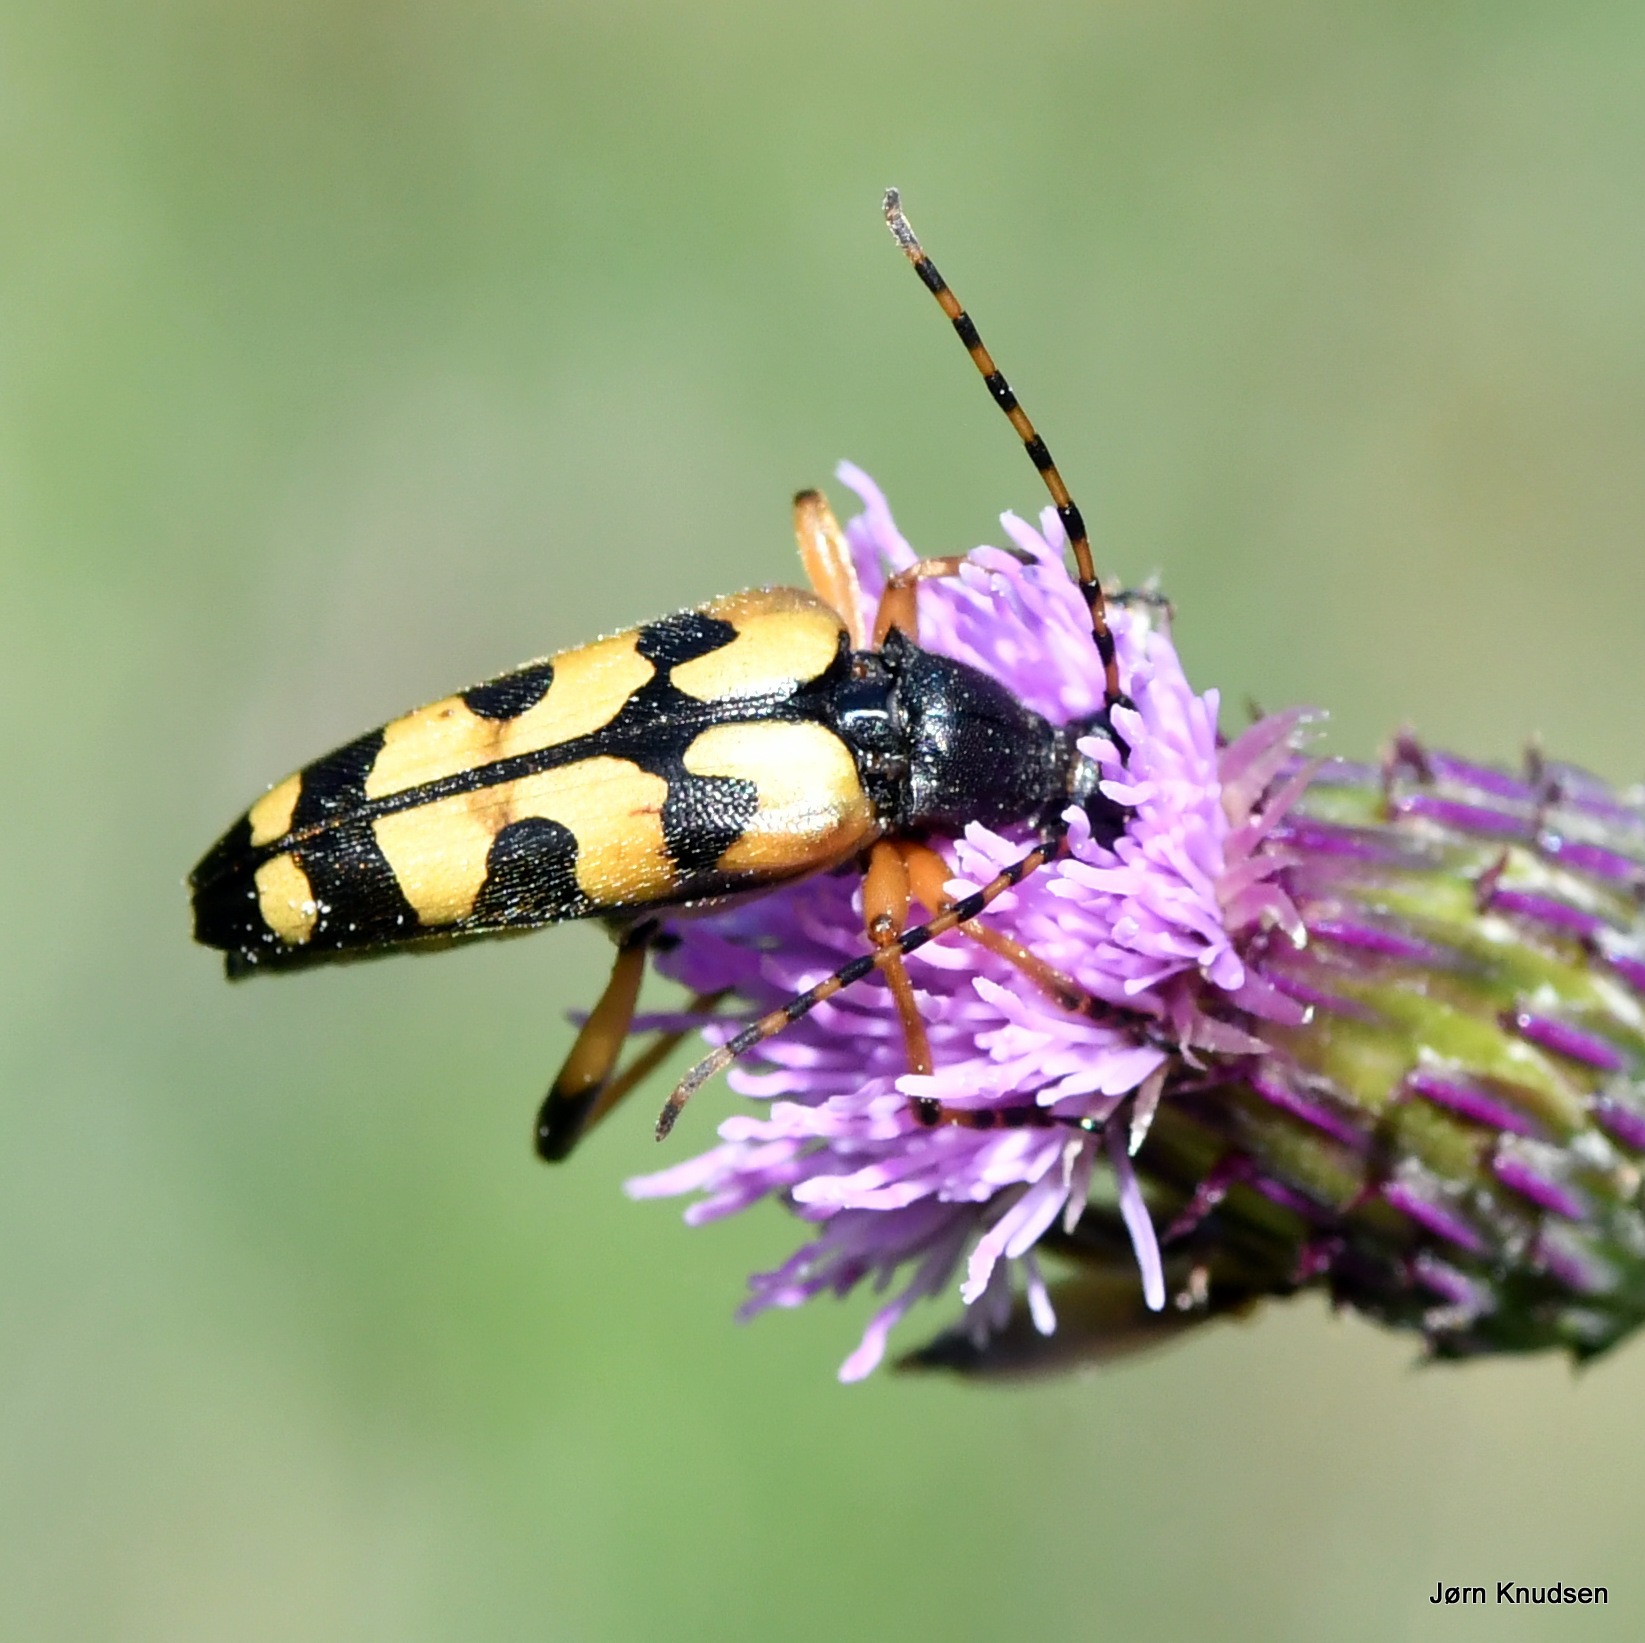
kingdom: Animalia
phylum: Arthropoda
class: Insecta
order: Coleoptera
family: Cerambycidae
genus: Rutpela
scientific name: Rutpela maculata
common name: Sydlig blomsterbuk
